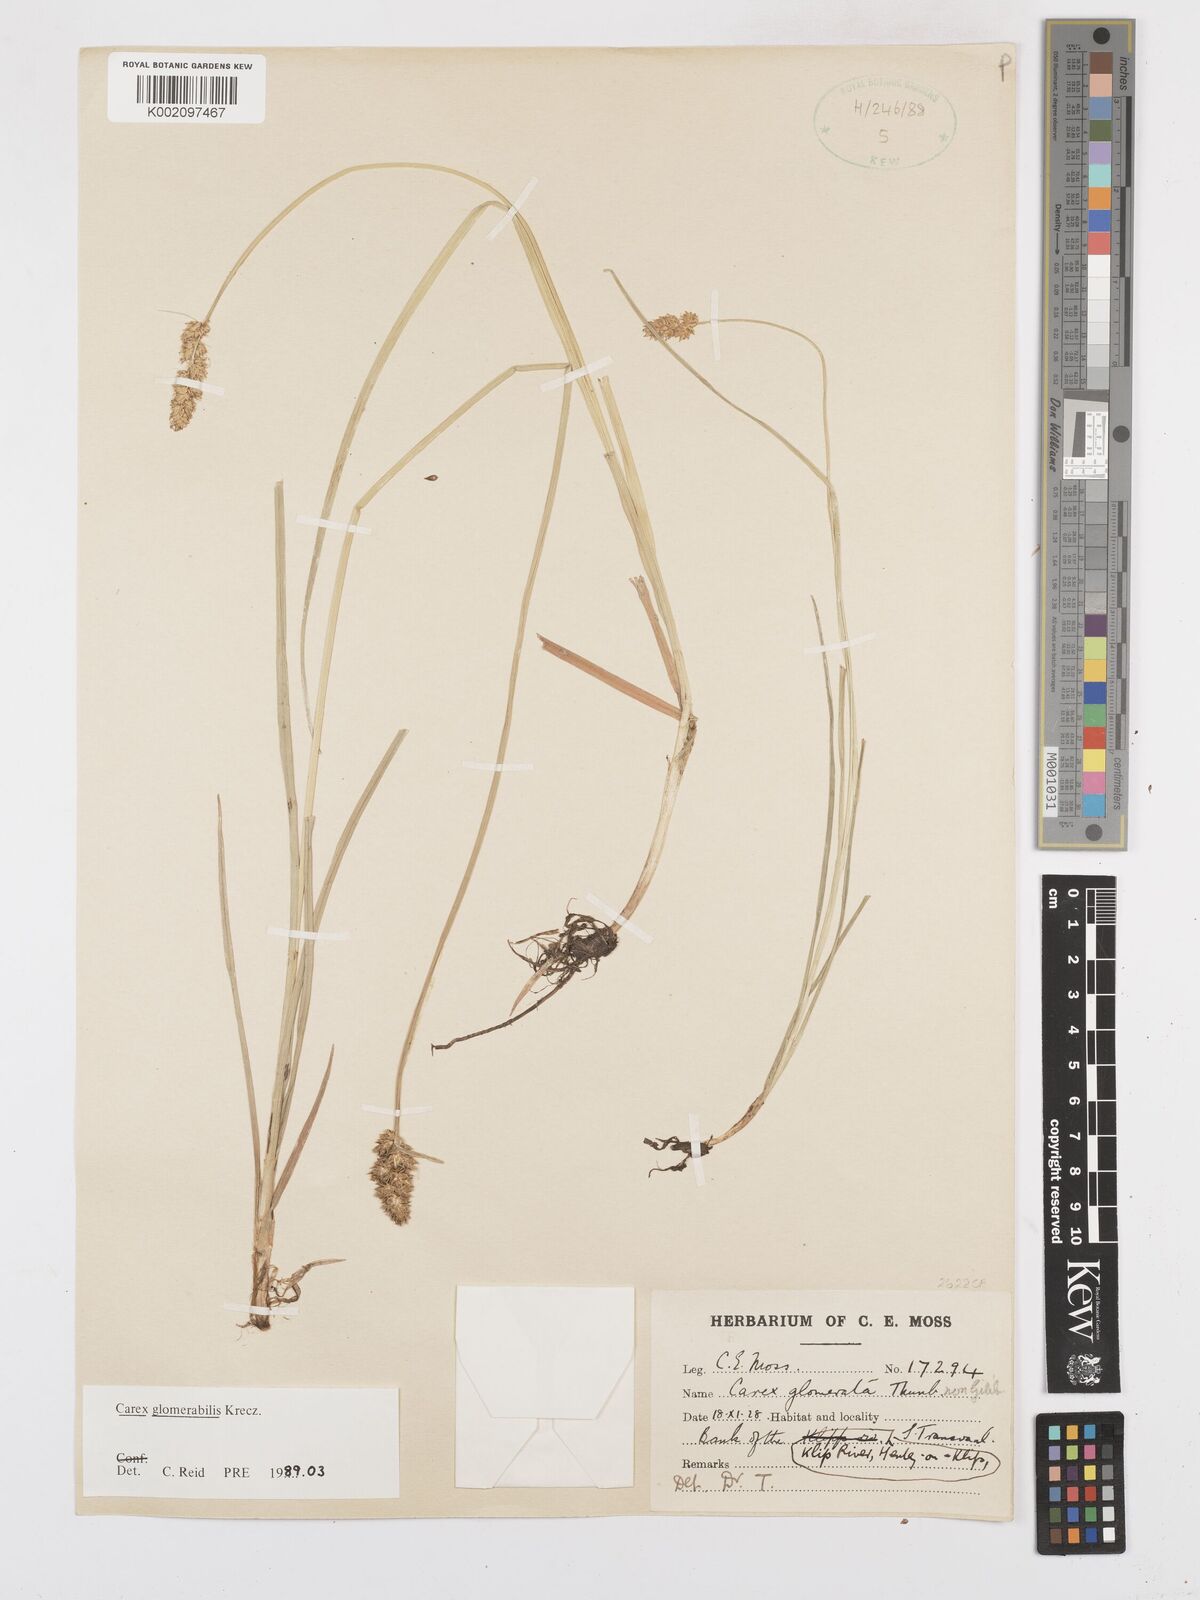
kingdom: Plantae
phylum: Tracheophyta
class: Liliopsida
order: Poales
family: Cyperaceae
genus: Carex
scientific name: Carex glomerata
